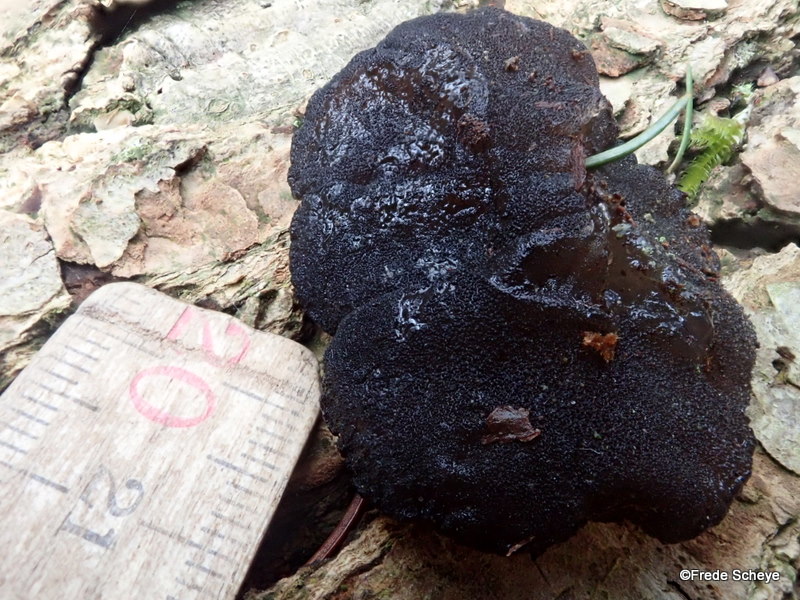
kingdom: Fungi
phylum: Basidiomycota
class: Agaricomycetes
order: Auriculariales
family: Auriculariaceae
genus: Exidia
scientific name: Exidia glandulosa
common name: ege-bævretop
